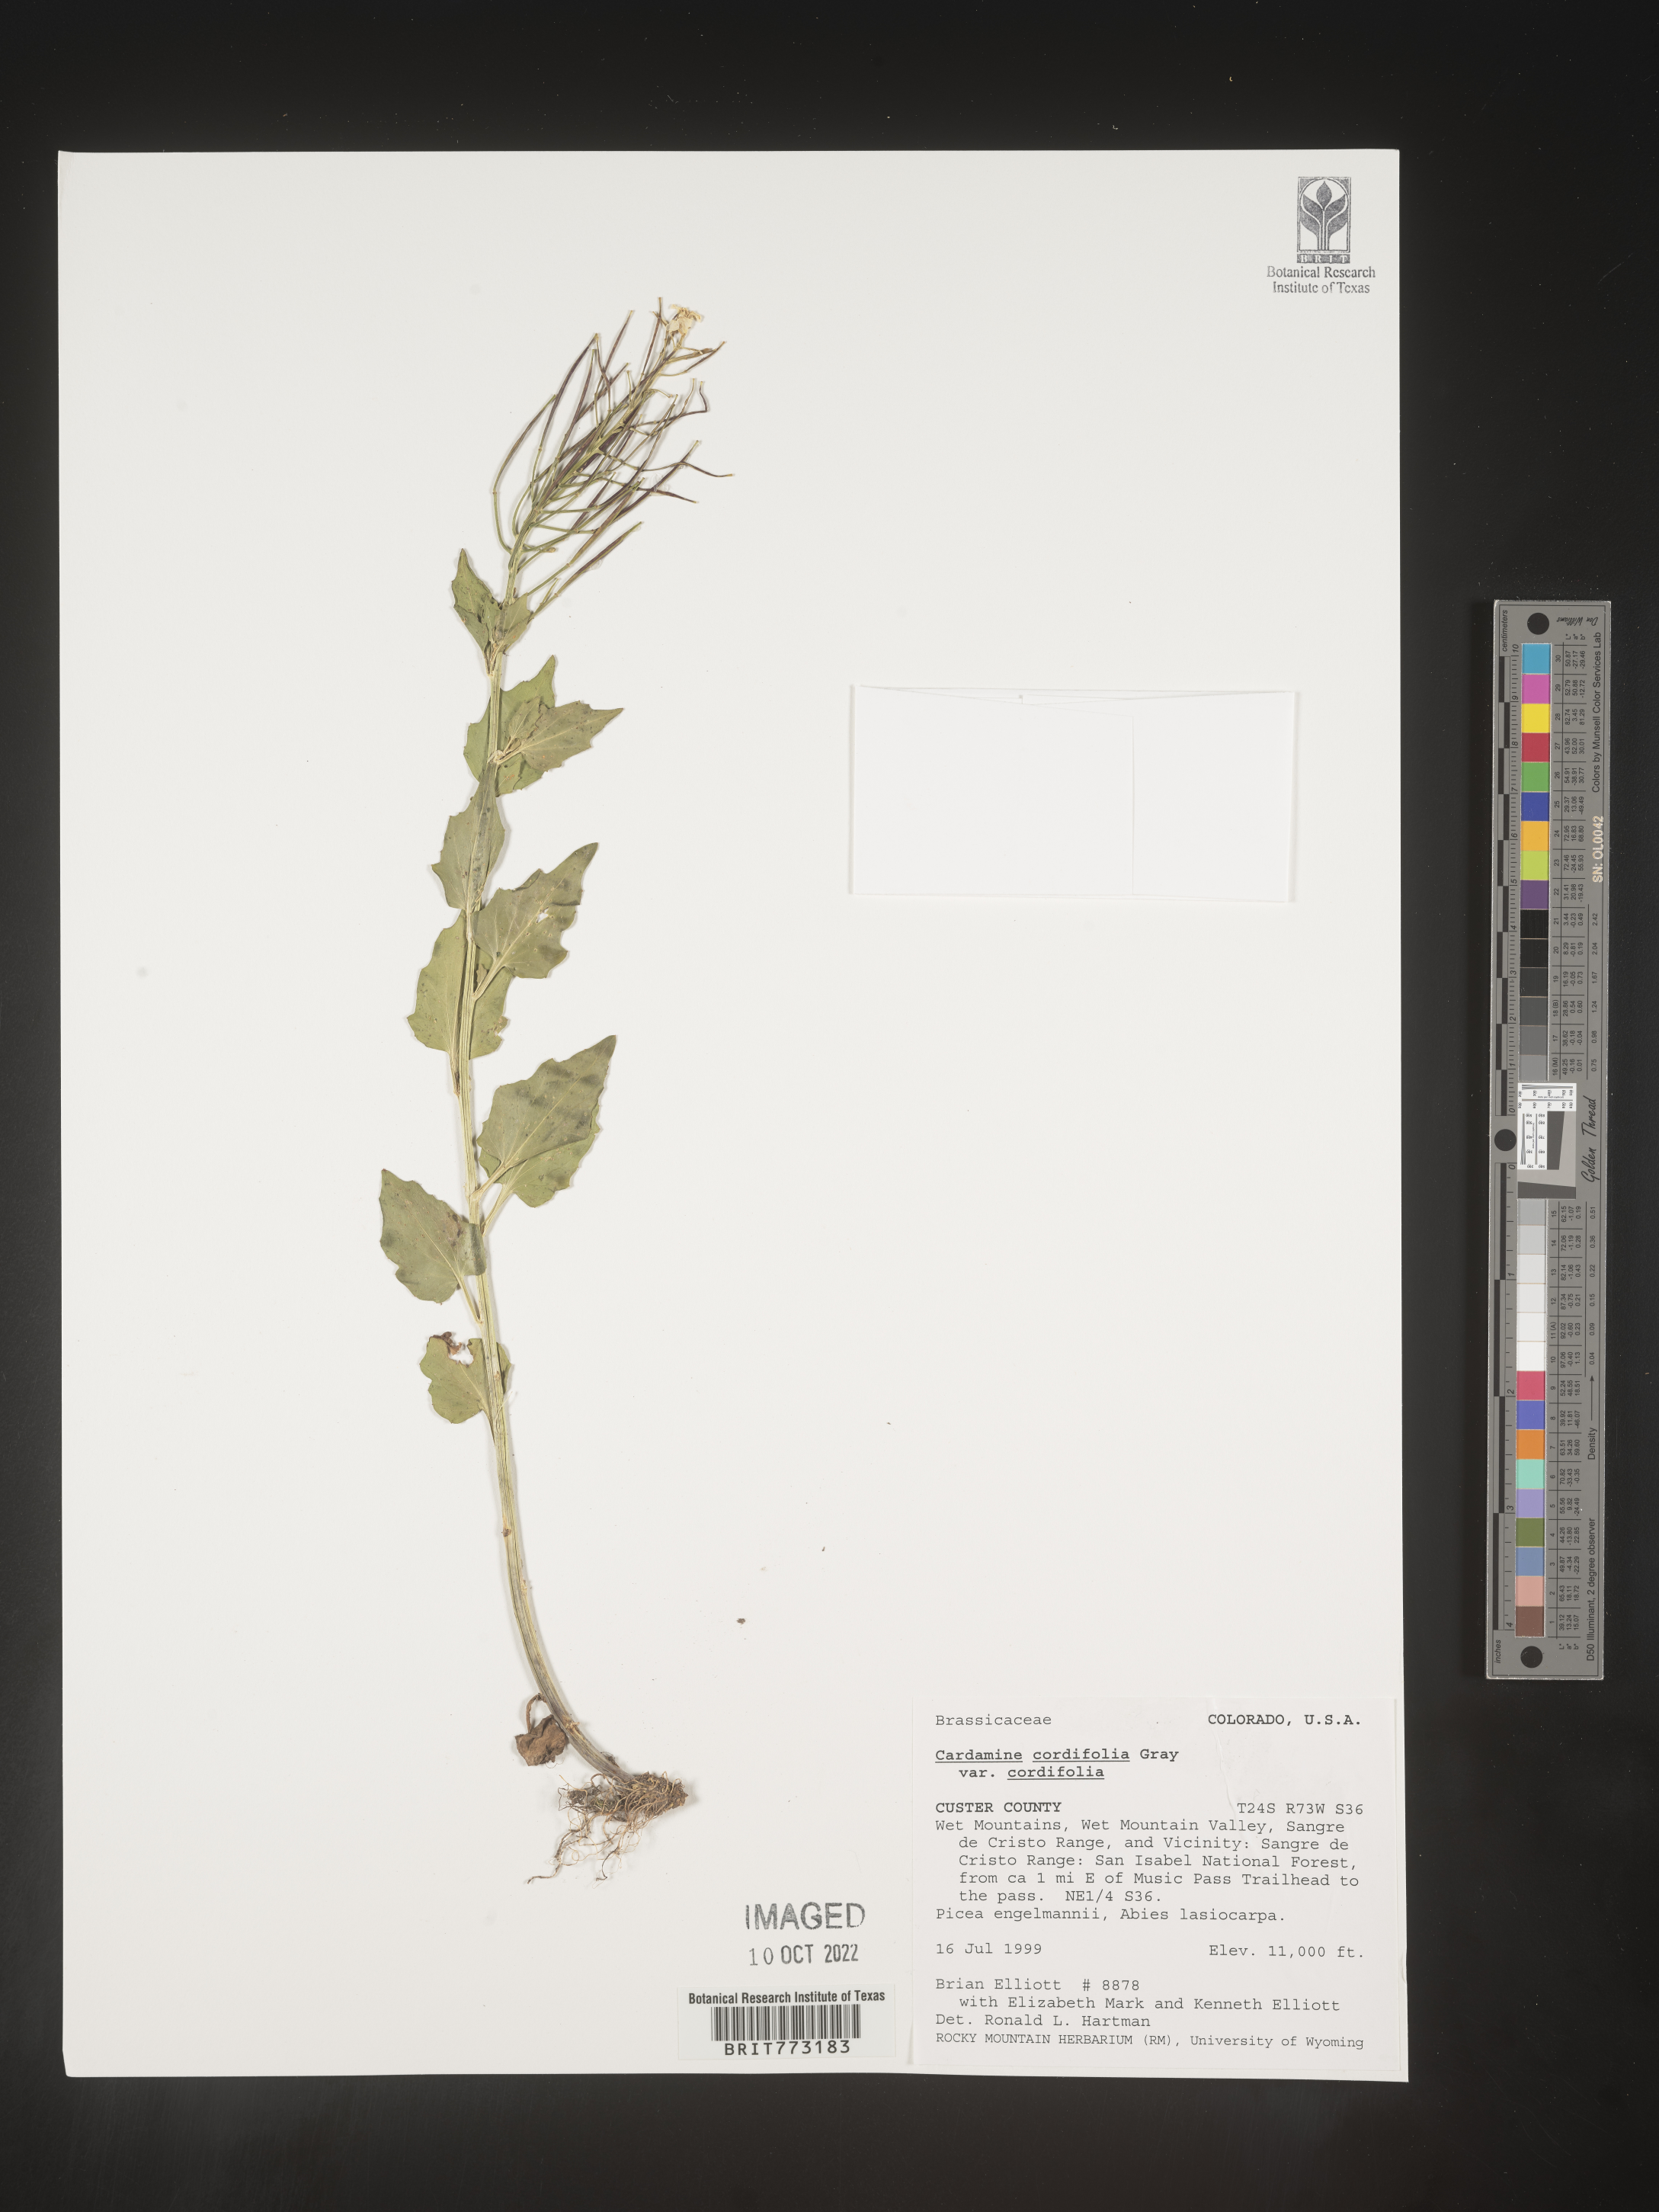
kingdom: Plantae
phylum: Tracheophyta
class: Magnoliopsida
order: Brassicales
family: Brassicaceae
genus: Cardamine
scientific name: Cardamine
